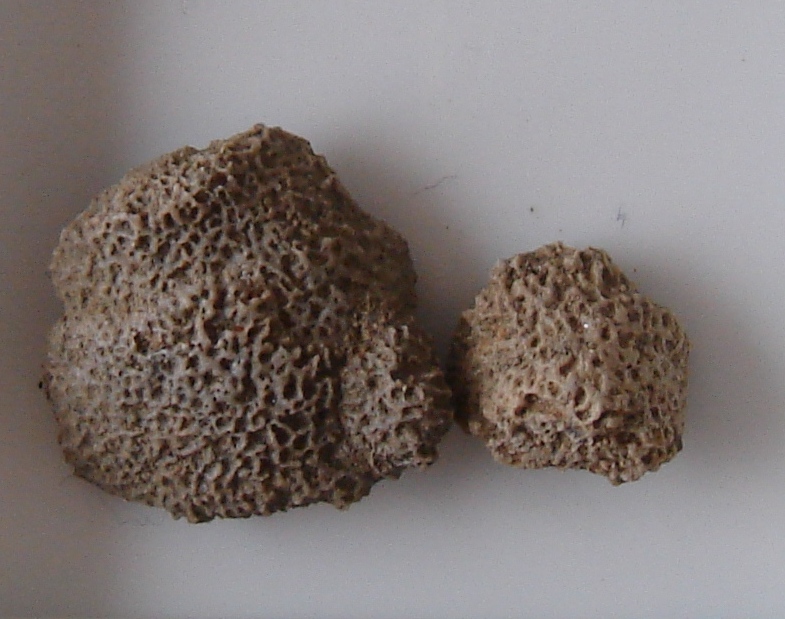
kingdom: Animalia
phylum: Bryozoa
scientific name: Bryozoa
